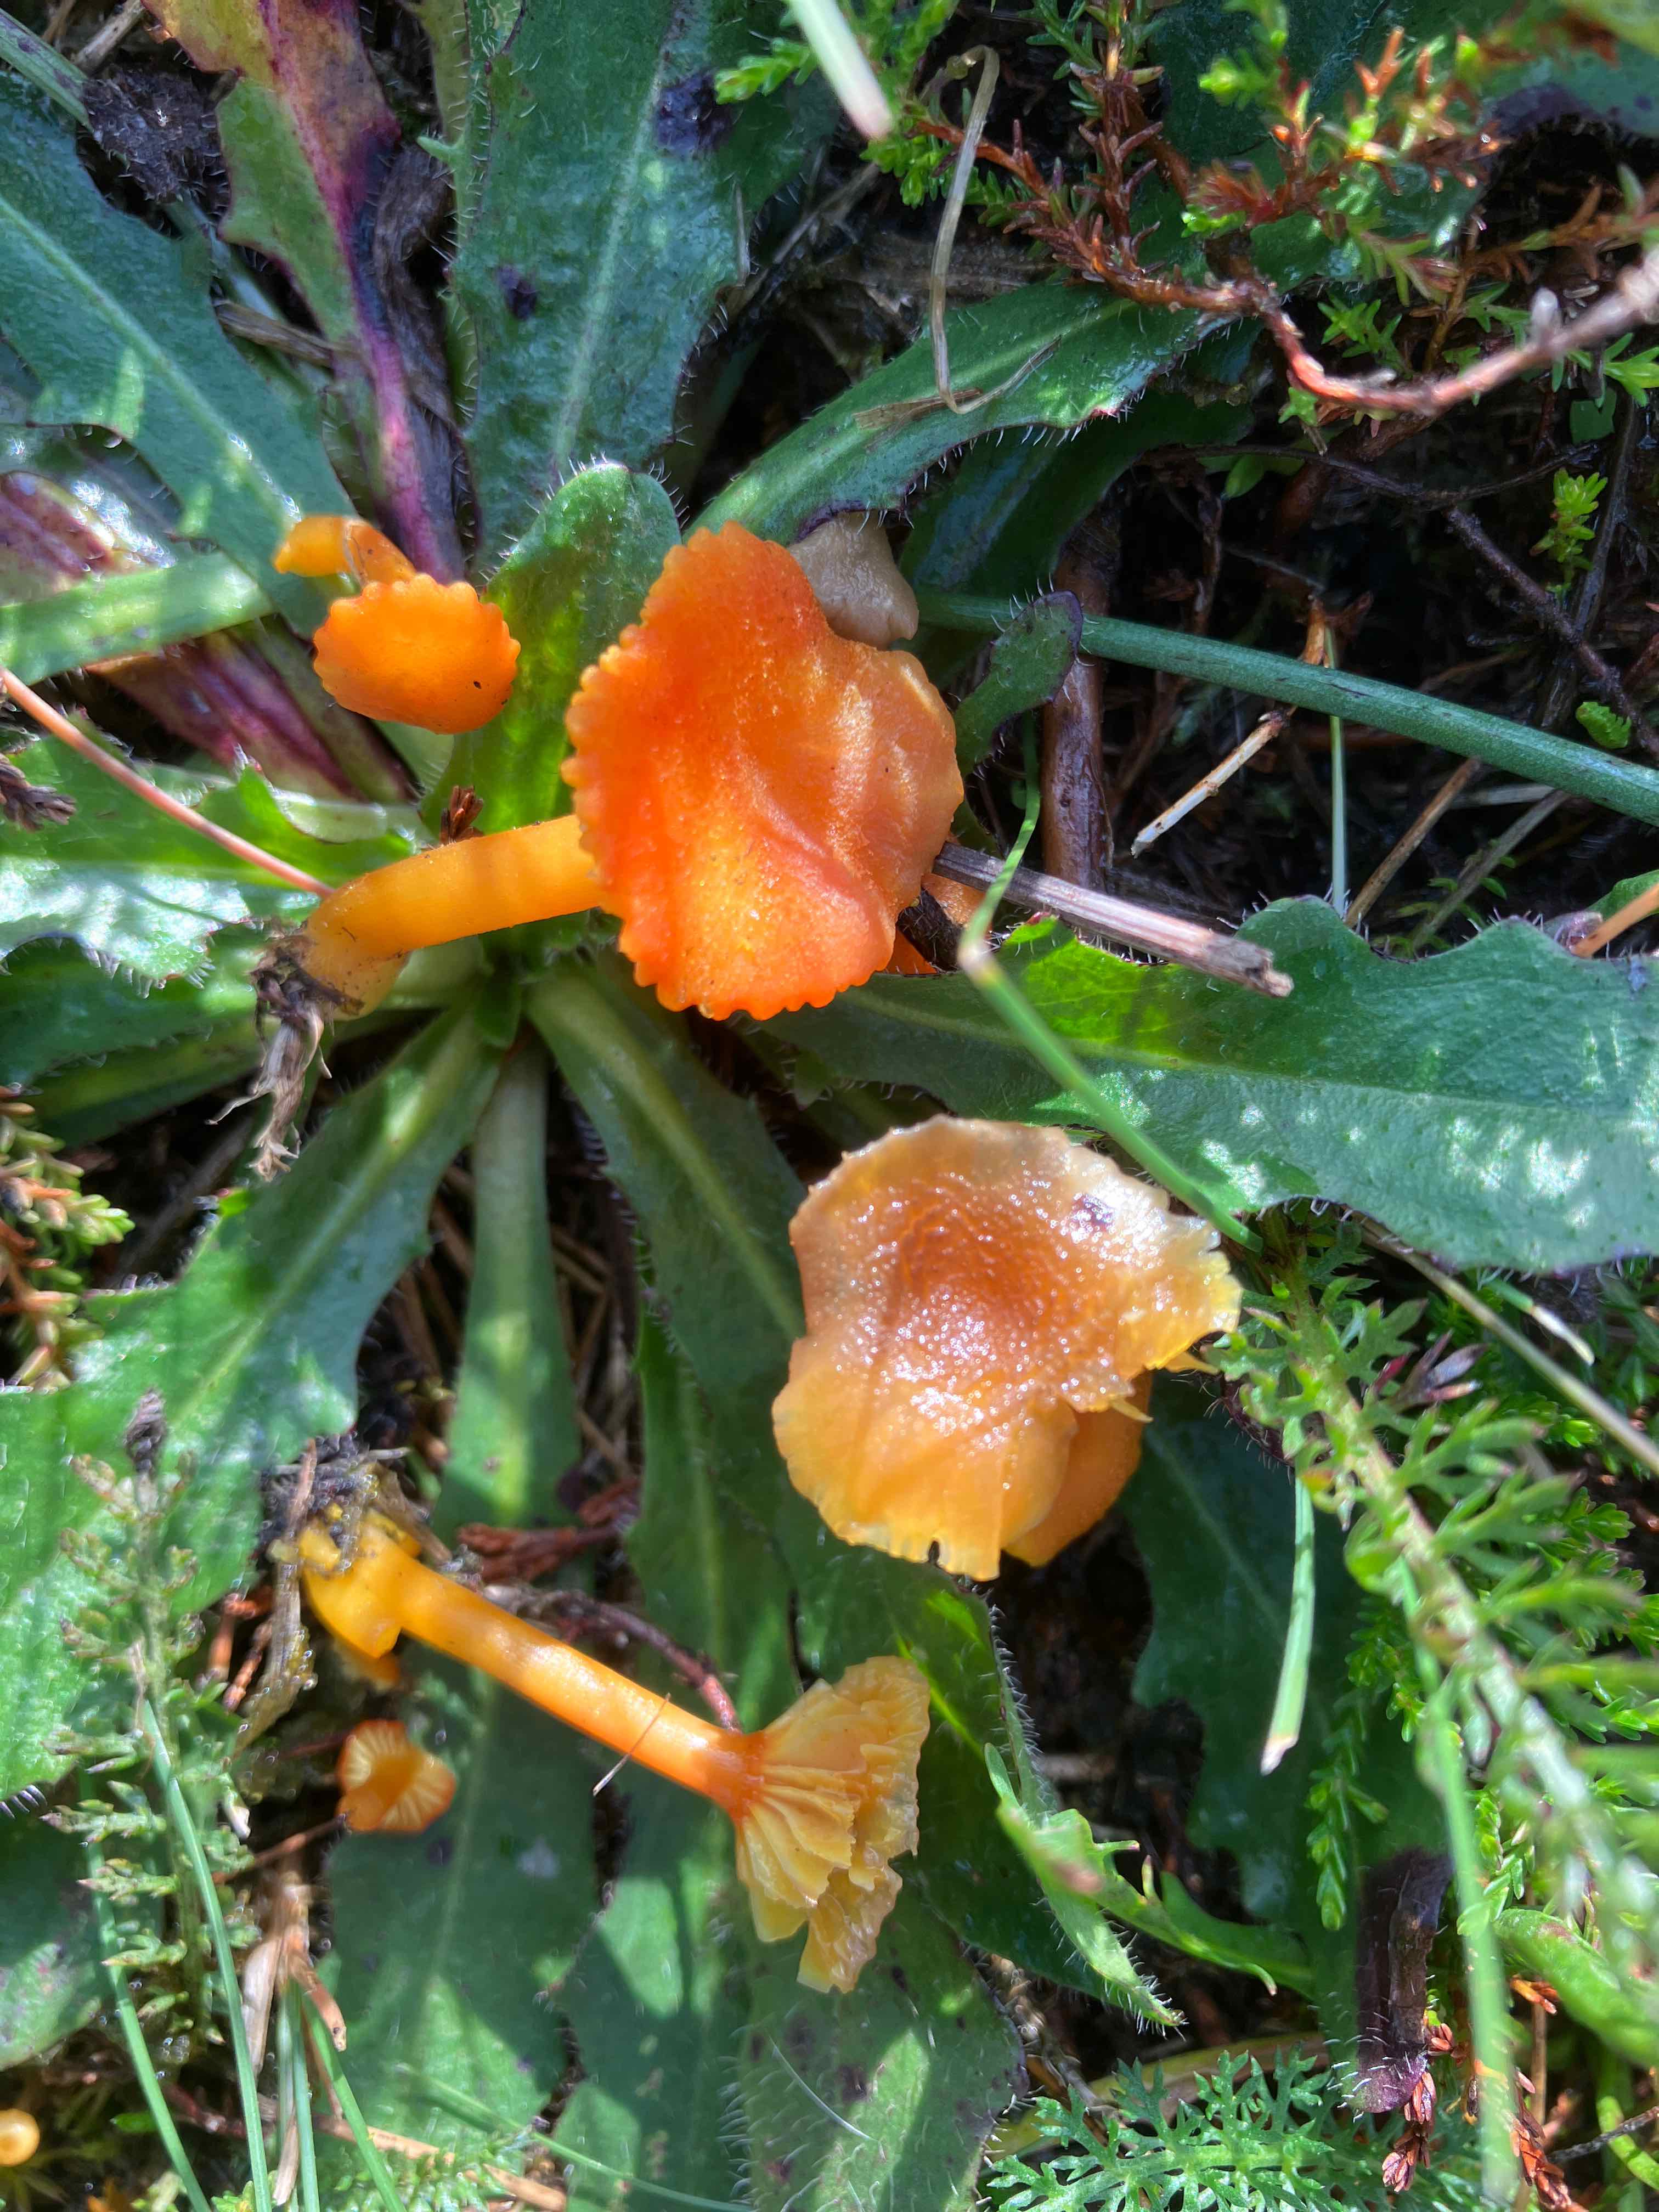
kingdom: Fungi
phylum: Basidiomycota
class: Agaricomycetes
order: Agaricales
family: Hygrophoraceae
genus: Hygrocybe
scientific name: Hygrocybe cantharellus
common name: kantarel-vokshat
